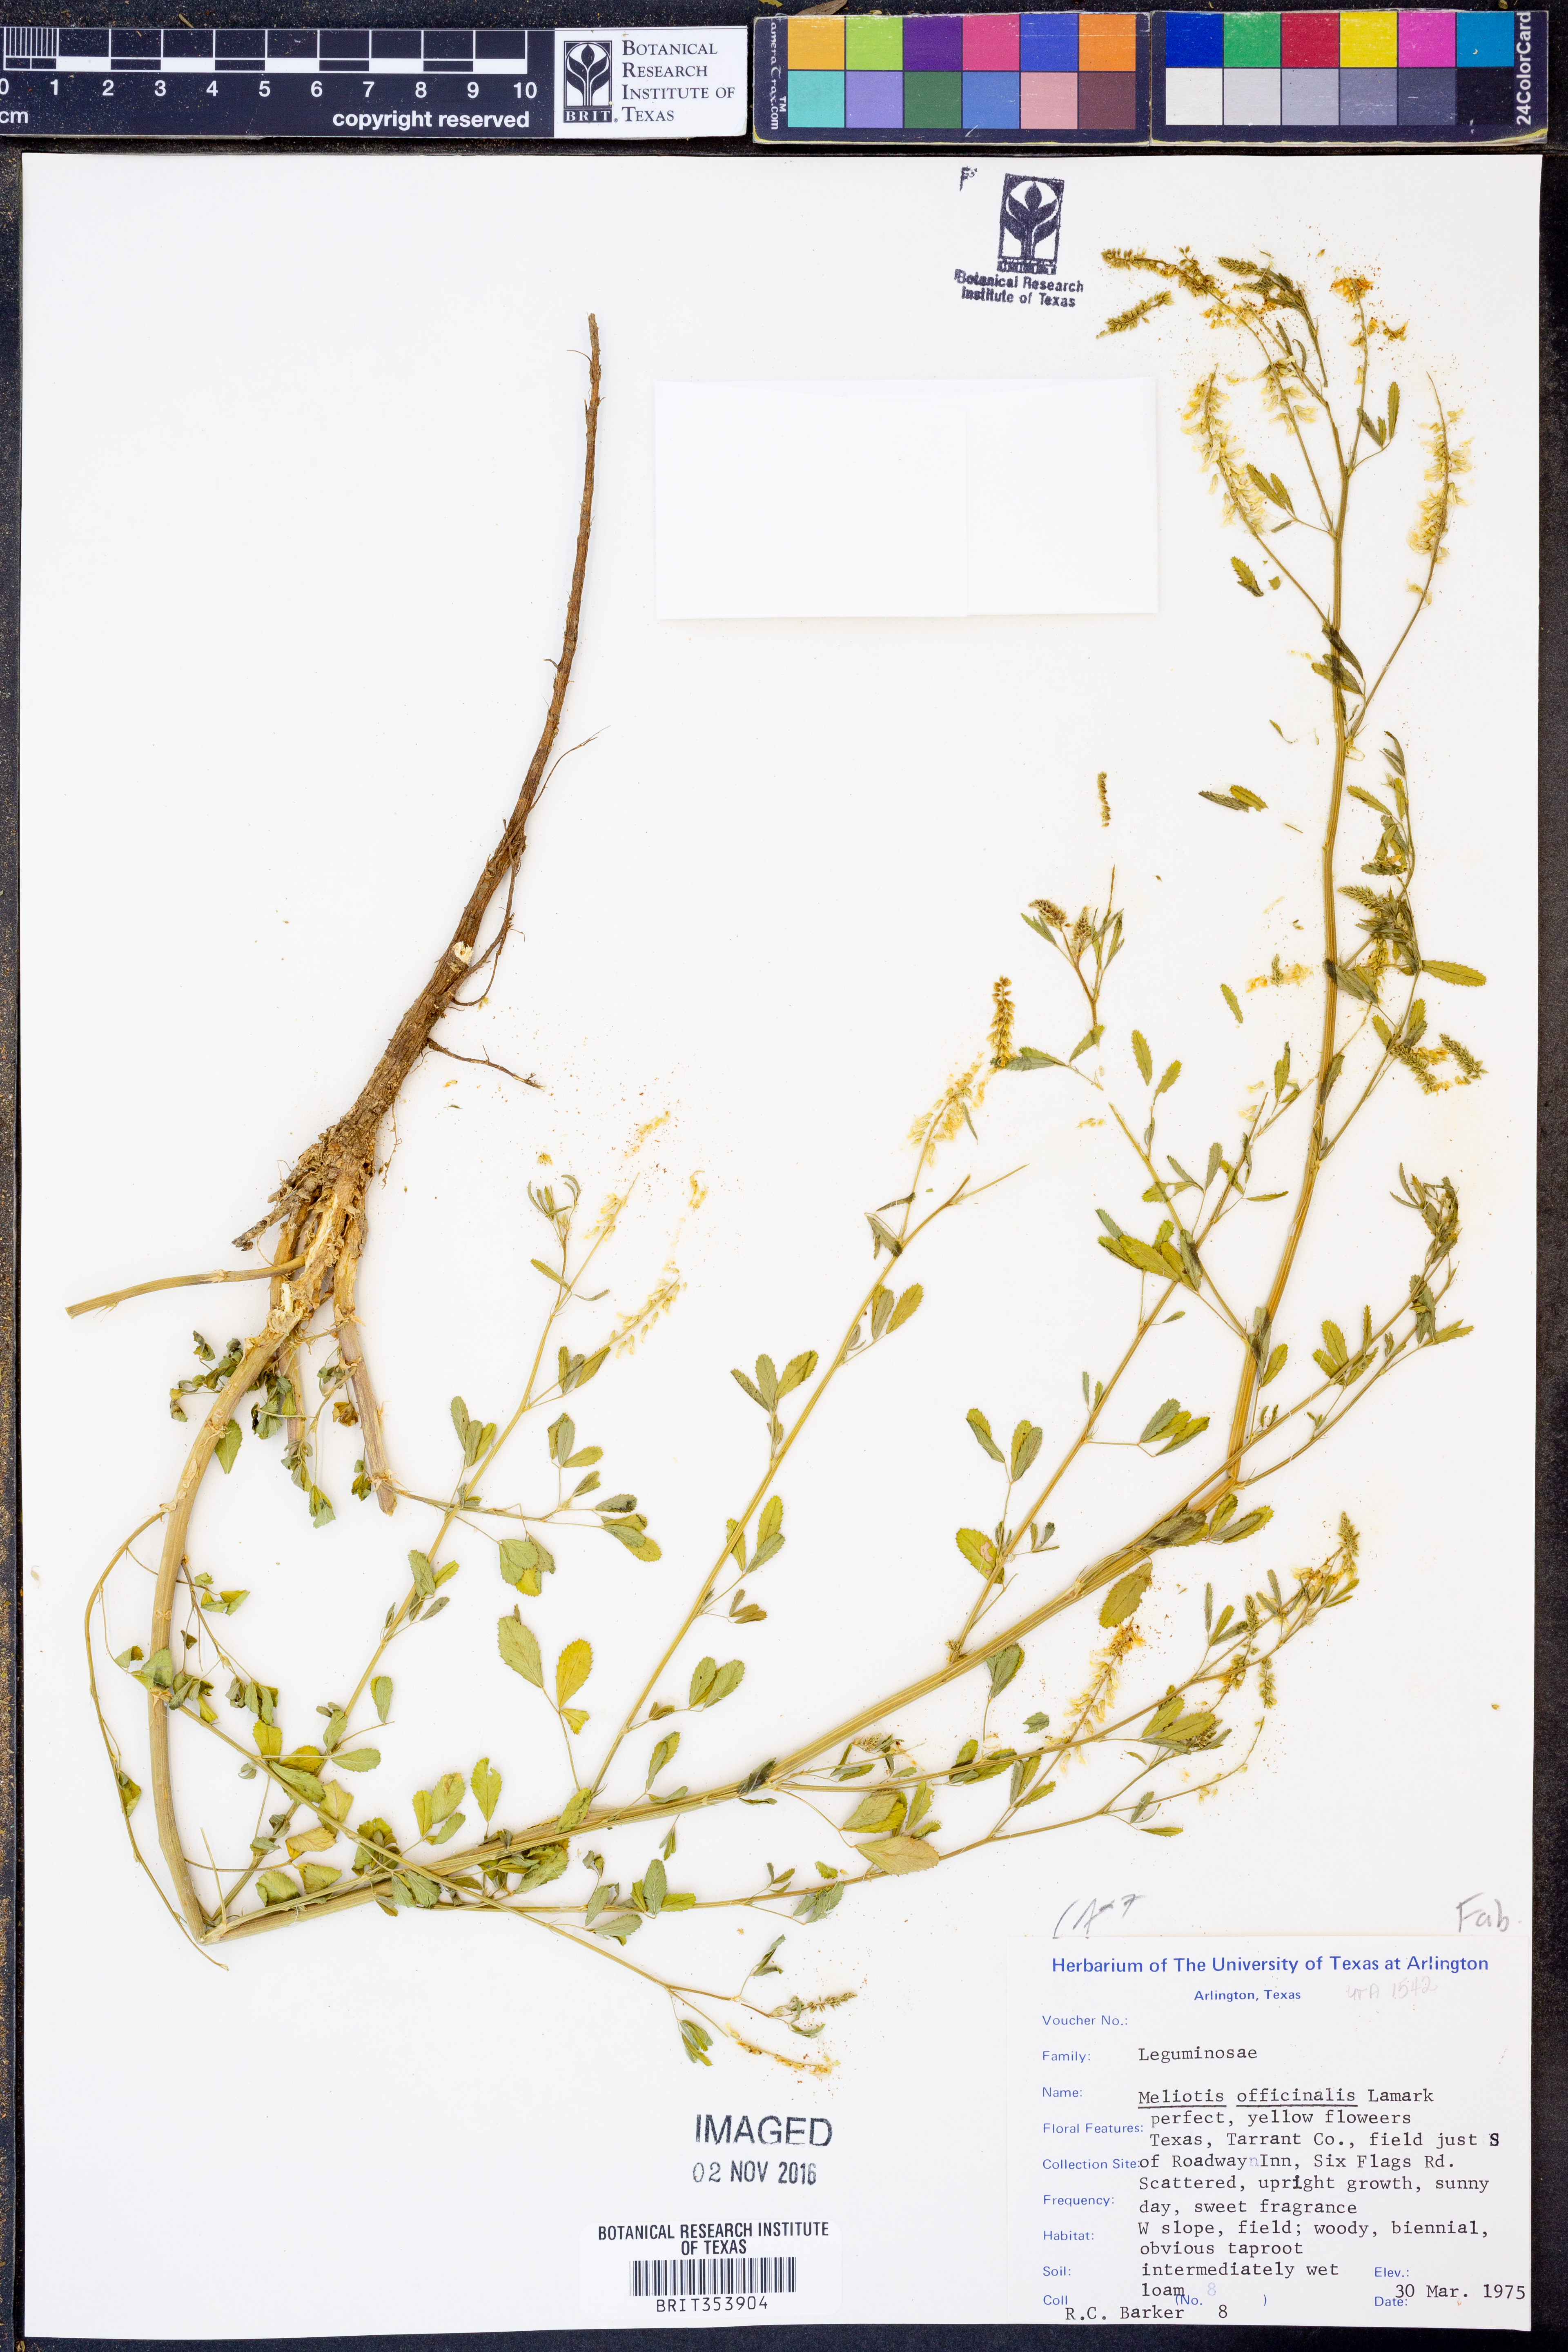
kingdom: Plantae
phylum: Tracheophyta
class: Magnoliopsida
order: Fabales
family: Fabaceae
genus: Melilotus
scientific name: Melilotus officinalis
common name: Sweetclover
